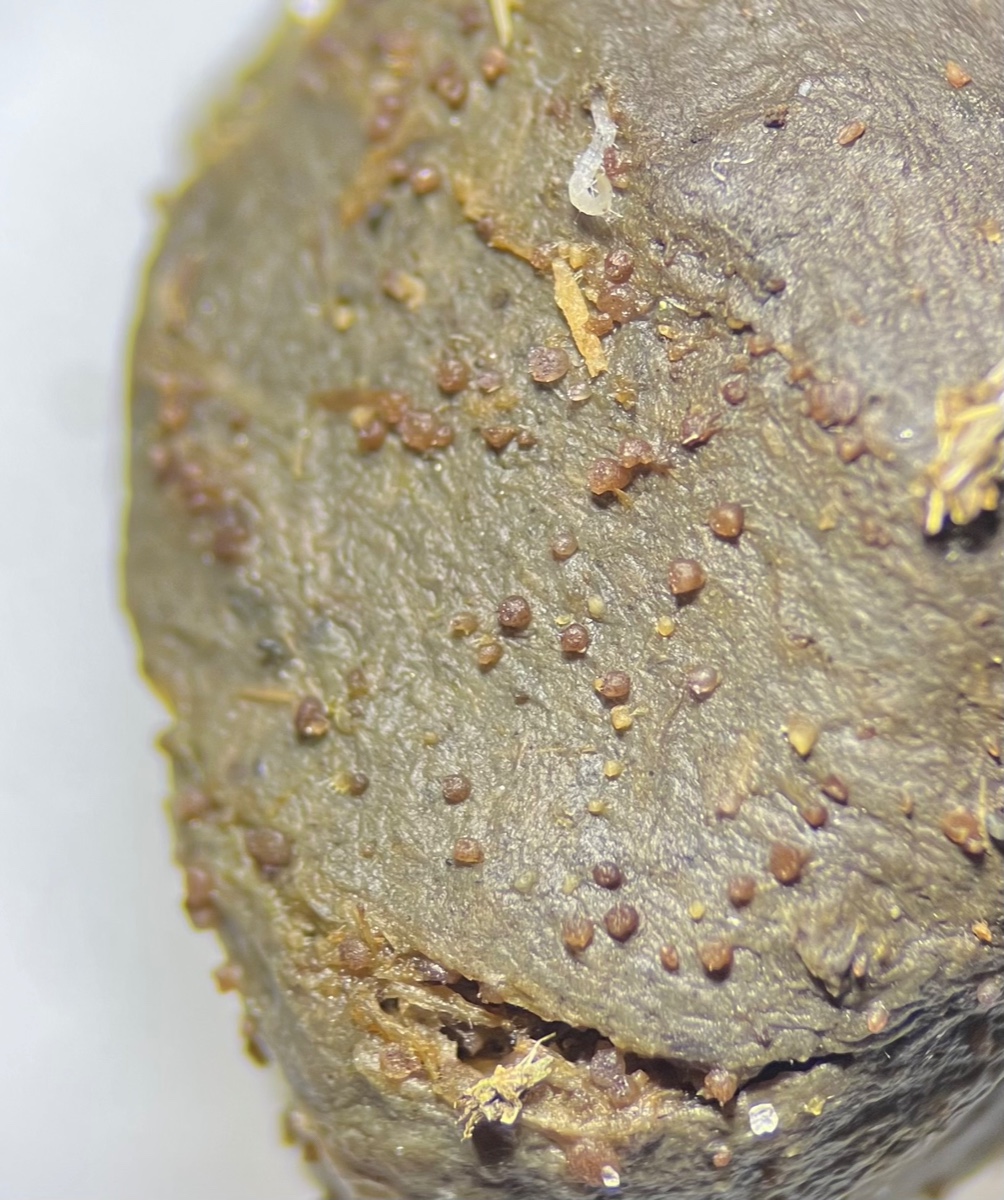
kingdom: Fungi
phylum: Ascomycota
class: Pezizomycetes
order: Pezizales
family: Ascobolaceae
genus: Ascobolus
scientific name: Ascobolus
